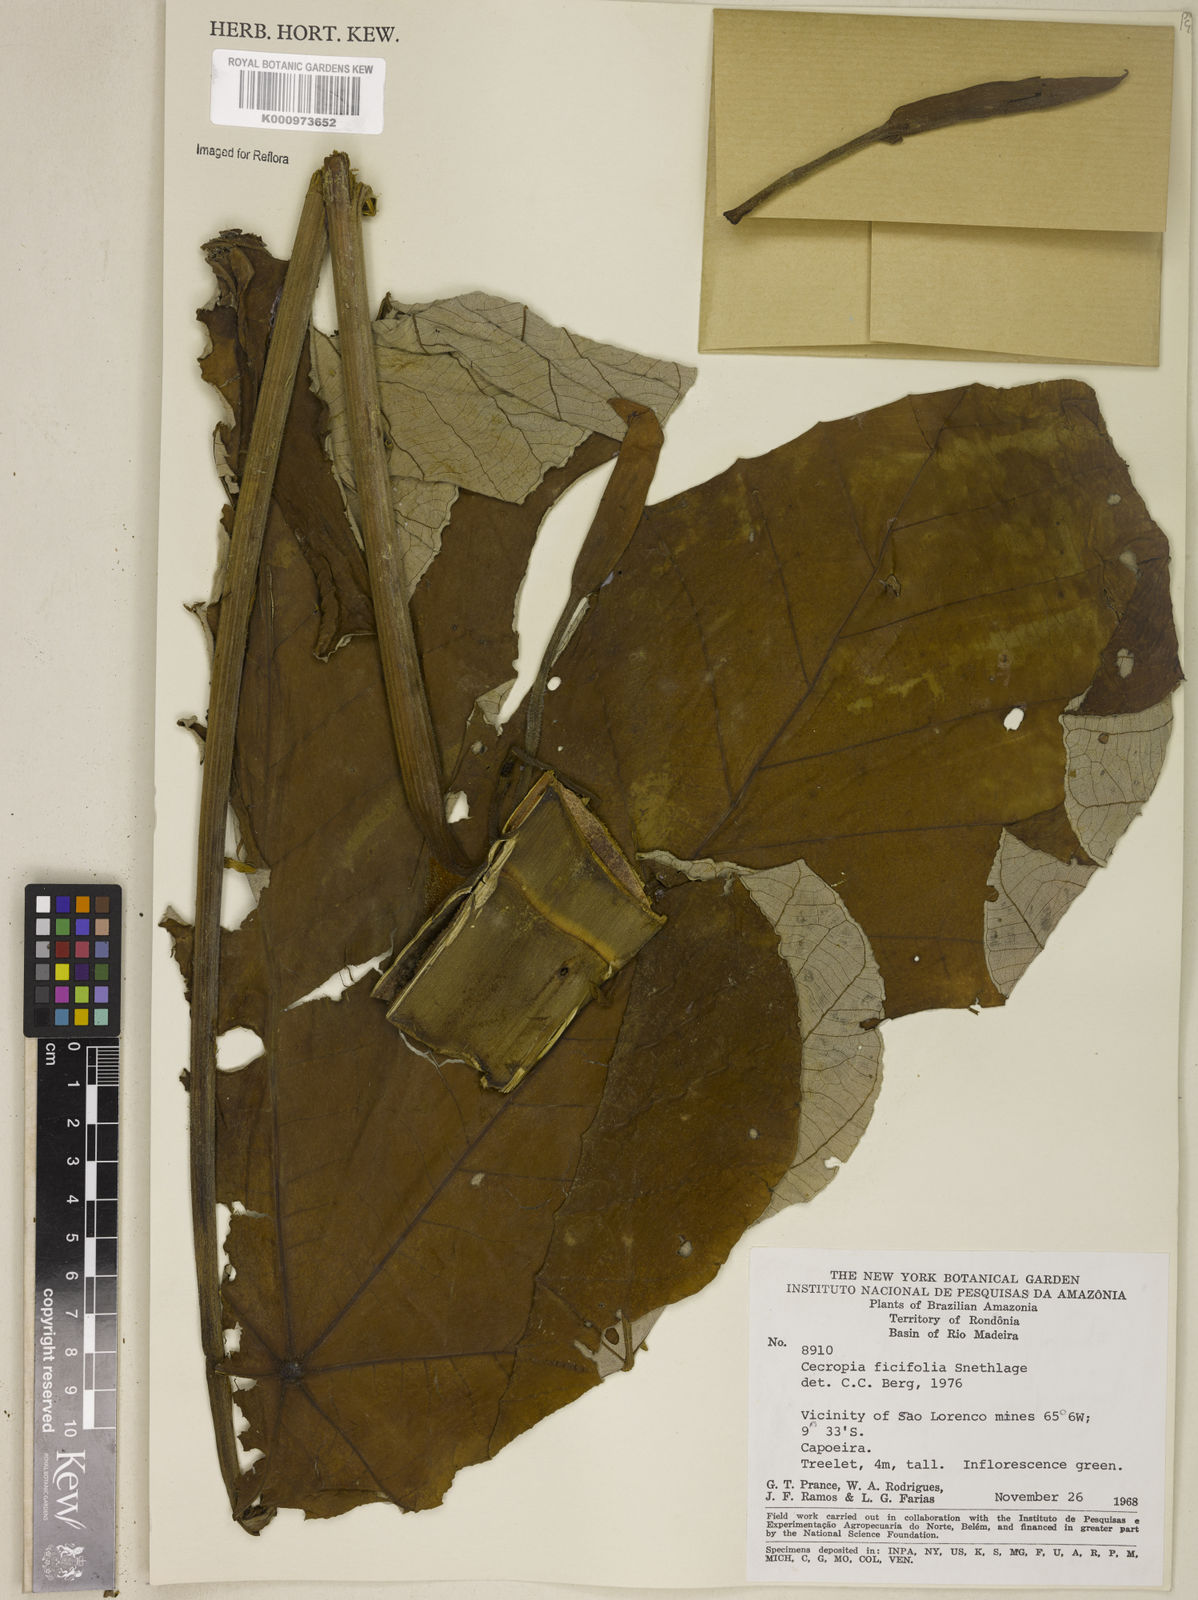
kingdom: Plantae
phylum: Tracheophyta
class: Magnoliopsida
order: Rosales
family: Urticaceae
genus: Cecropia
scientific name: Cecropia ficifolia
